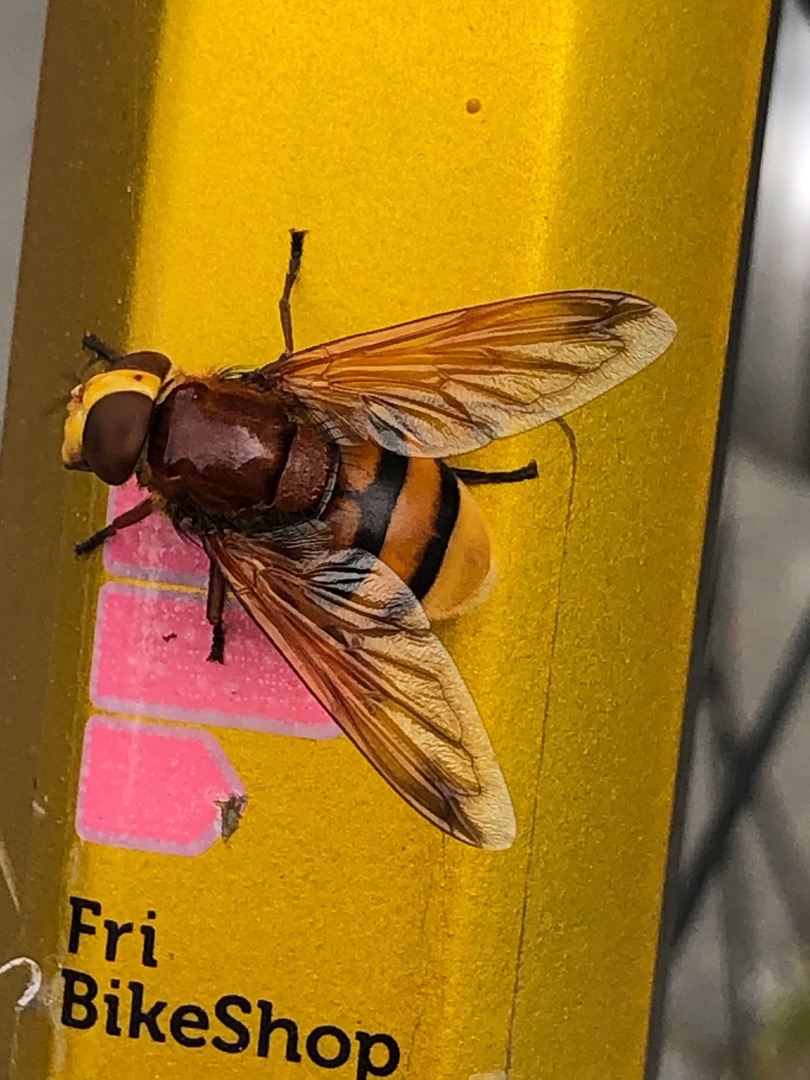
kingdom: Animalia
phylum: Arthropoda
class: Insecta
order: Diptera
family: Syrphidae
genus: Volucella
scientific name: Volucella zonaria
